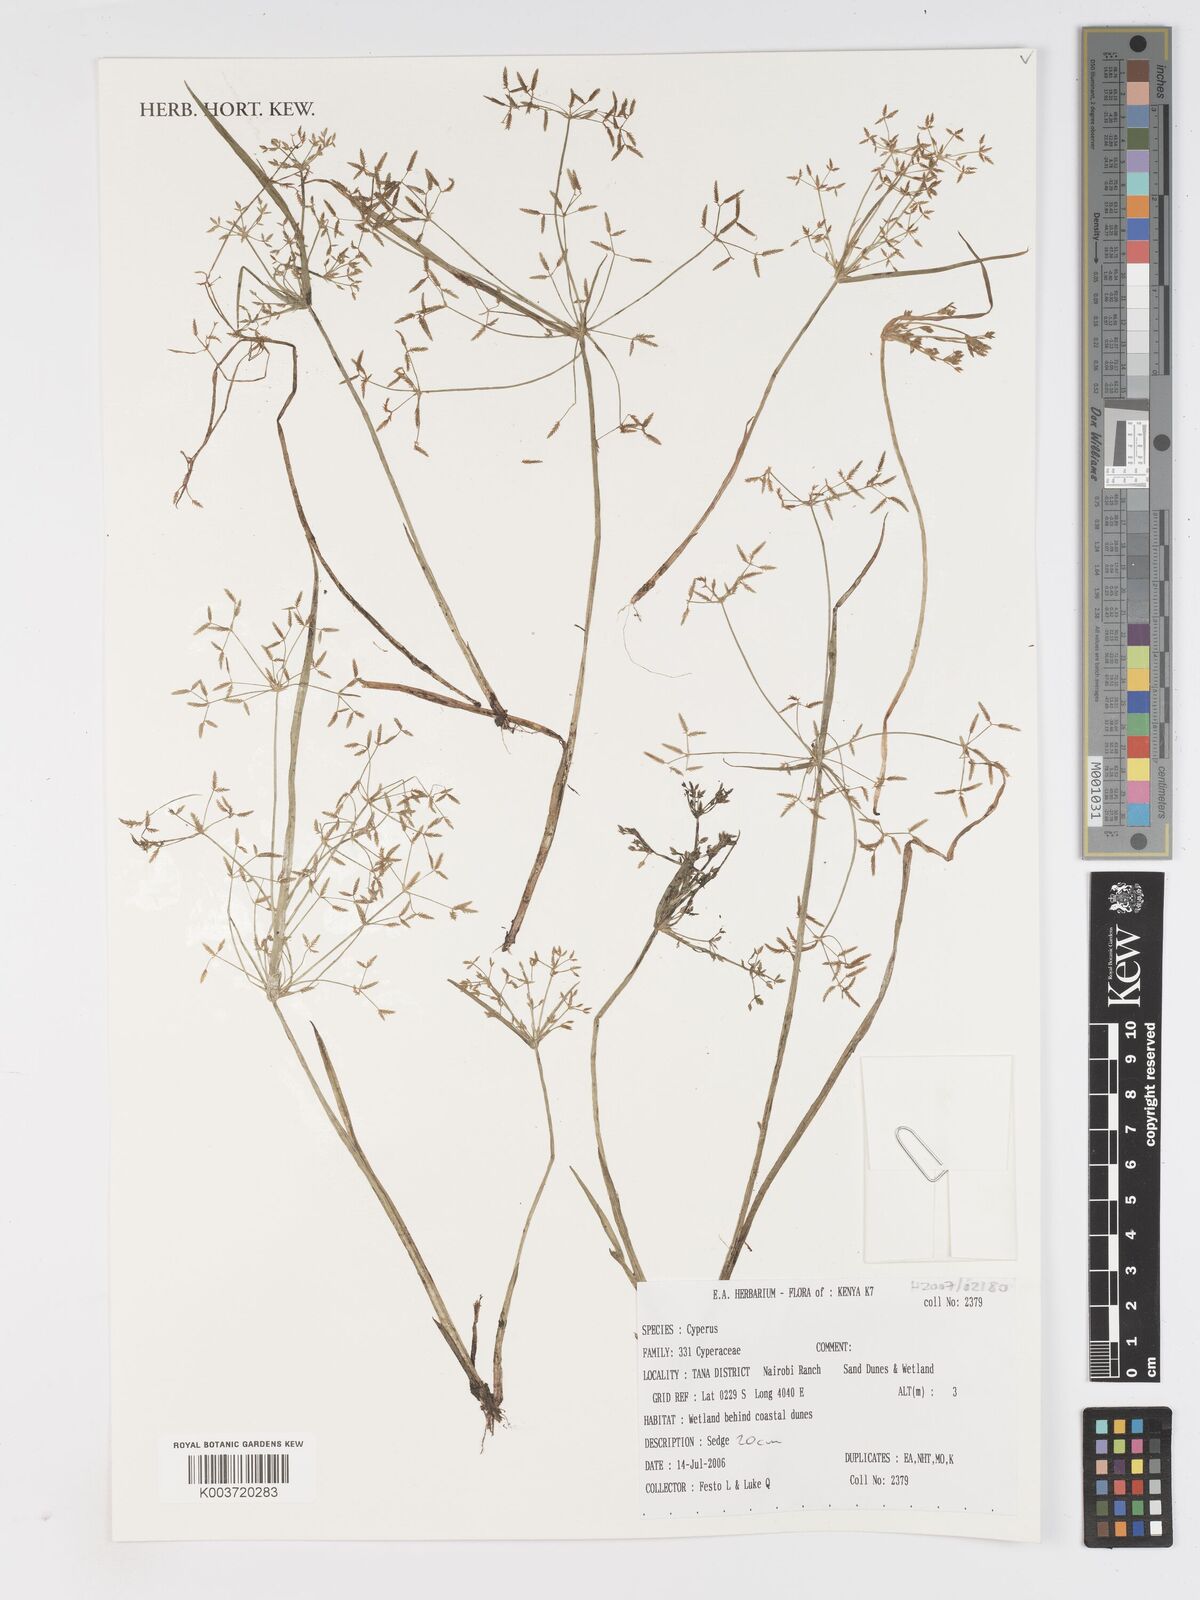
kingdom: Plantae
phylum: Tracheophyta
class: Liliopsida
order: Poales
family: Cyperaceae
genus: Cyperus
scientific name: Cyperus
